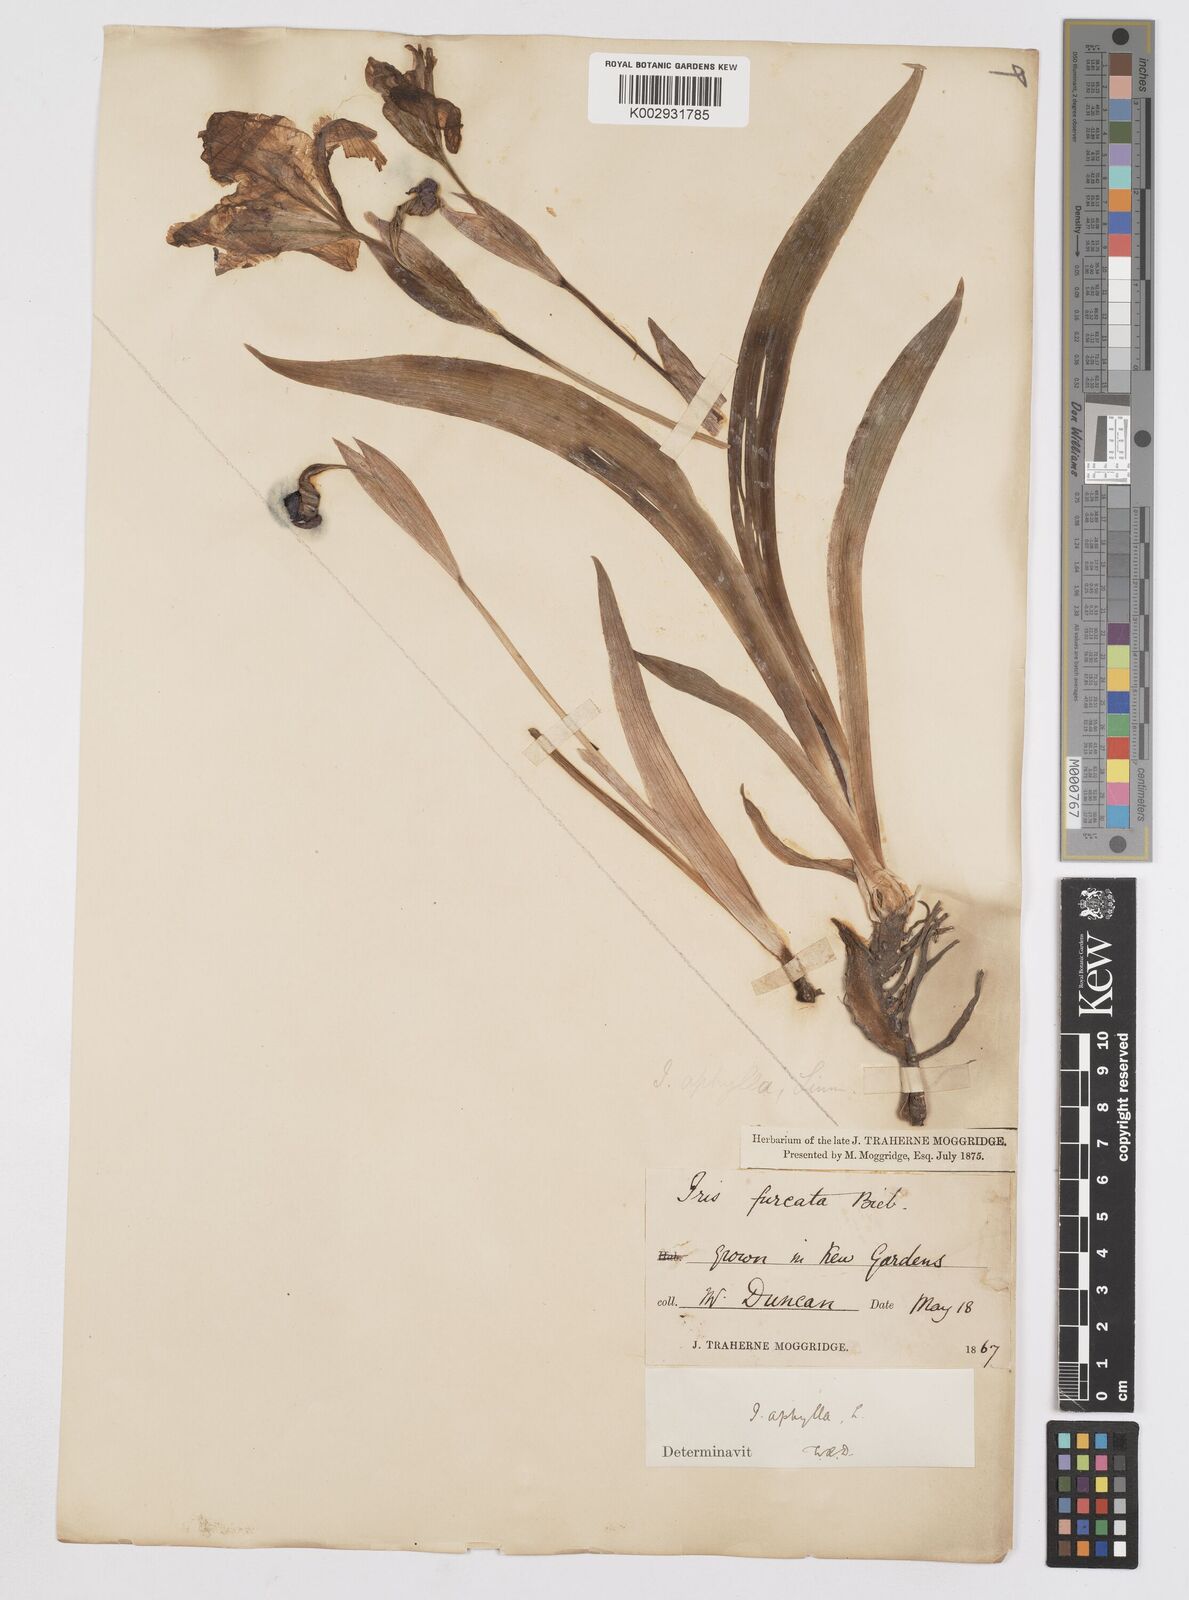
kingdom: Plantae
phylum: Tracheophyta
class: Liliopsida
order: Asparagales
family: Iridaceae
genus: Iris
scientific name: Iris aphylla
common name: Stool iris
